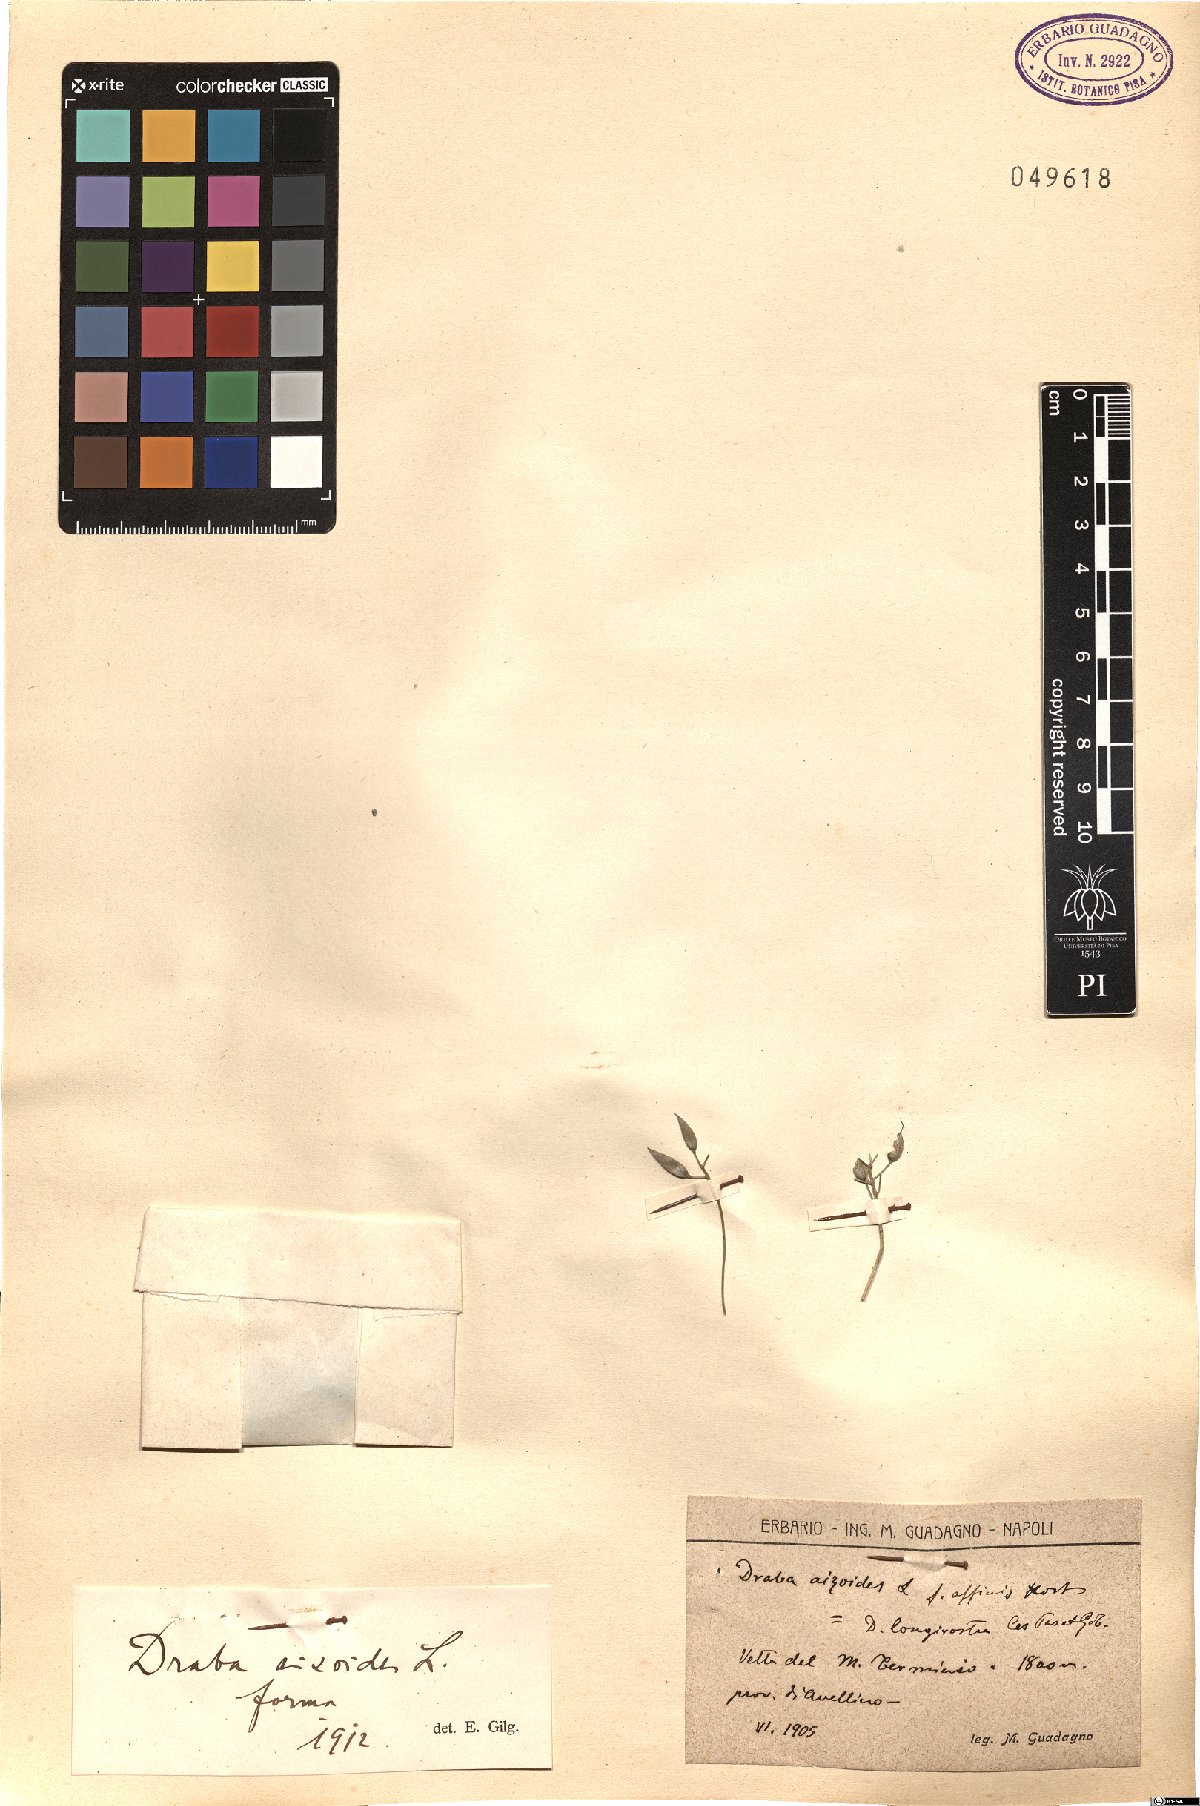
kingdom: Plantae
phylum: Tracheophyta
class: Magnoliopsida
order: Brassicales
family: Brassicaceae
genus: Draba
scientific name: Draba aizoides
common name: Yellow whitlowgrass
